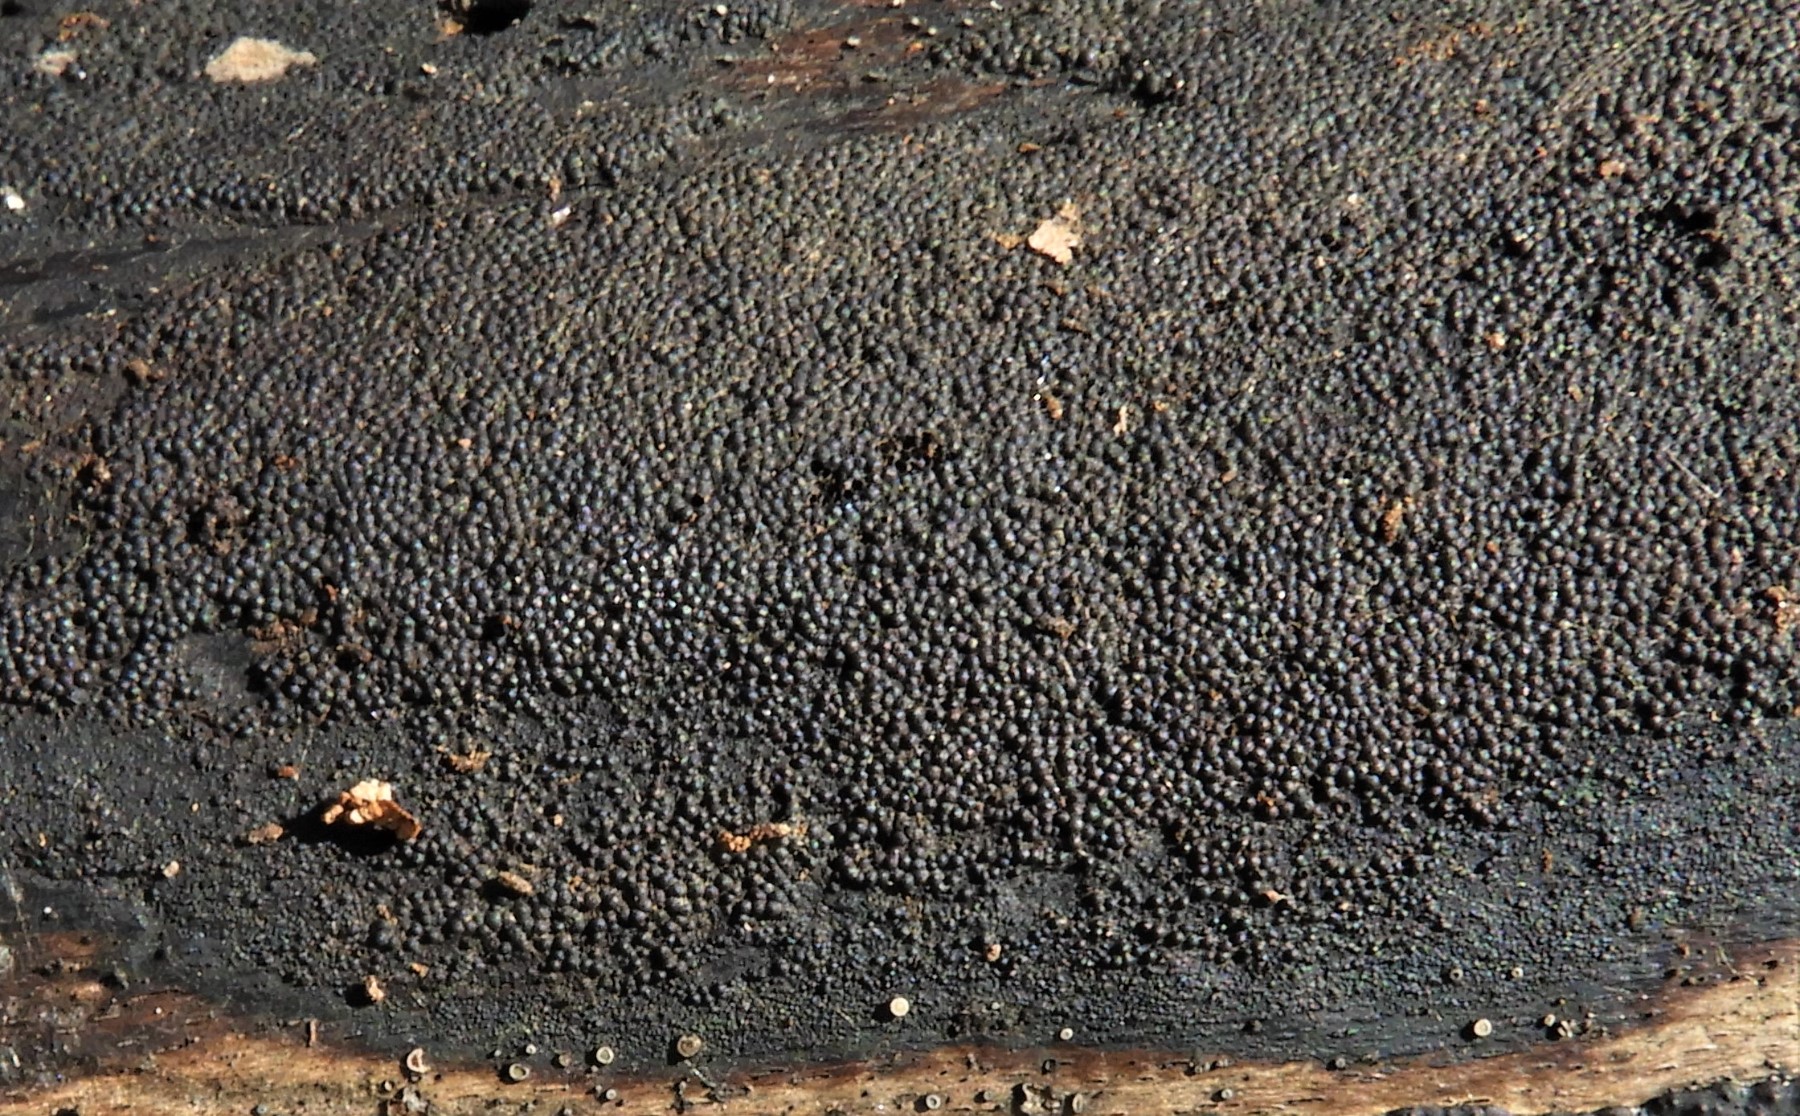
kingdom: Fungi
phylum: Ascomycota
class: Sordariomycetes
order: Xylariales
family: Xylariaceae
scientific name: Xylariaceae
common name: stødsvampfamilien
